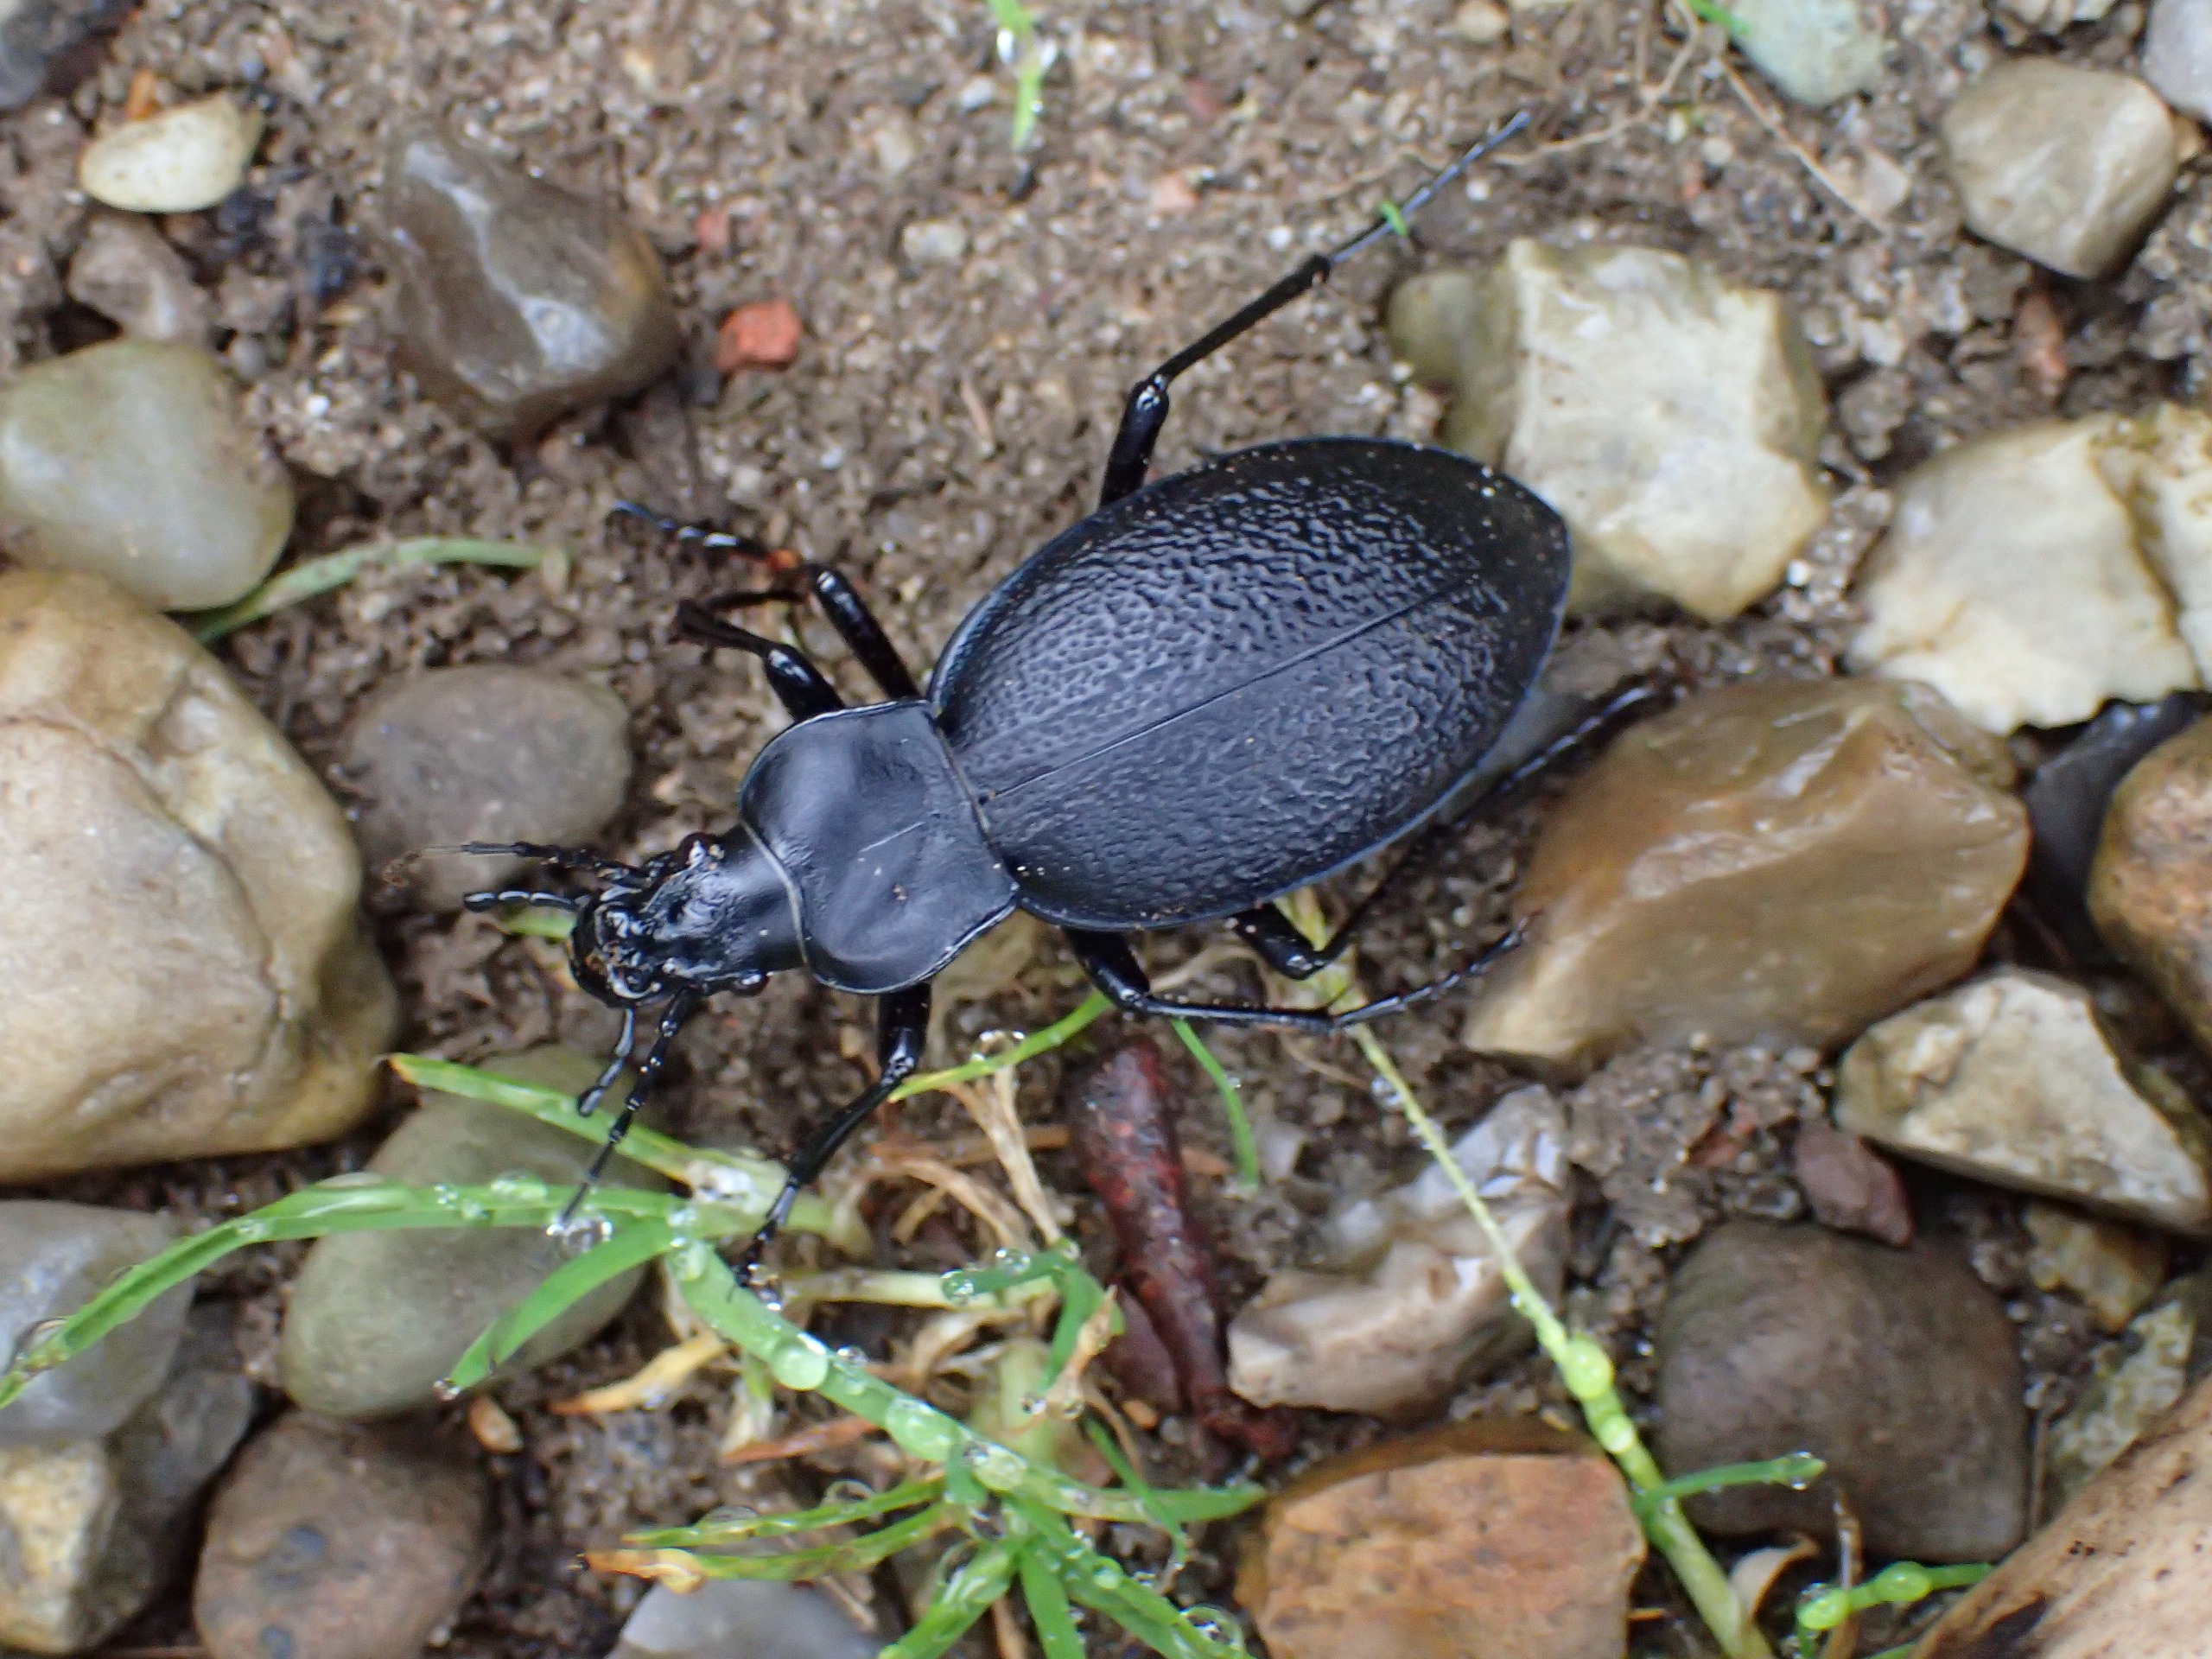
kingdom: Animalia
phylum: Arthropoda
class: Insecta
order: Coleoptera
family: Carabidae
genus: Carabus
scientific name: Carabus coriaceus
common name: Læderløber
